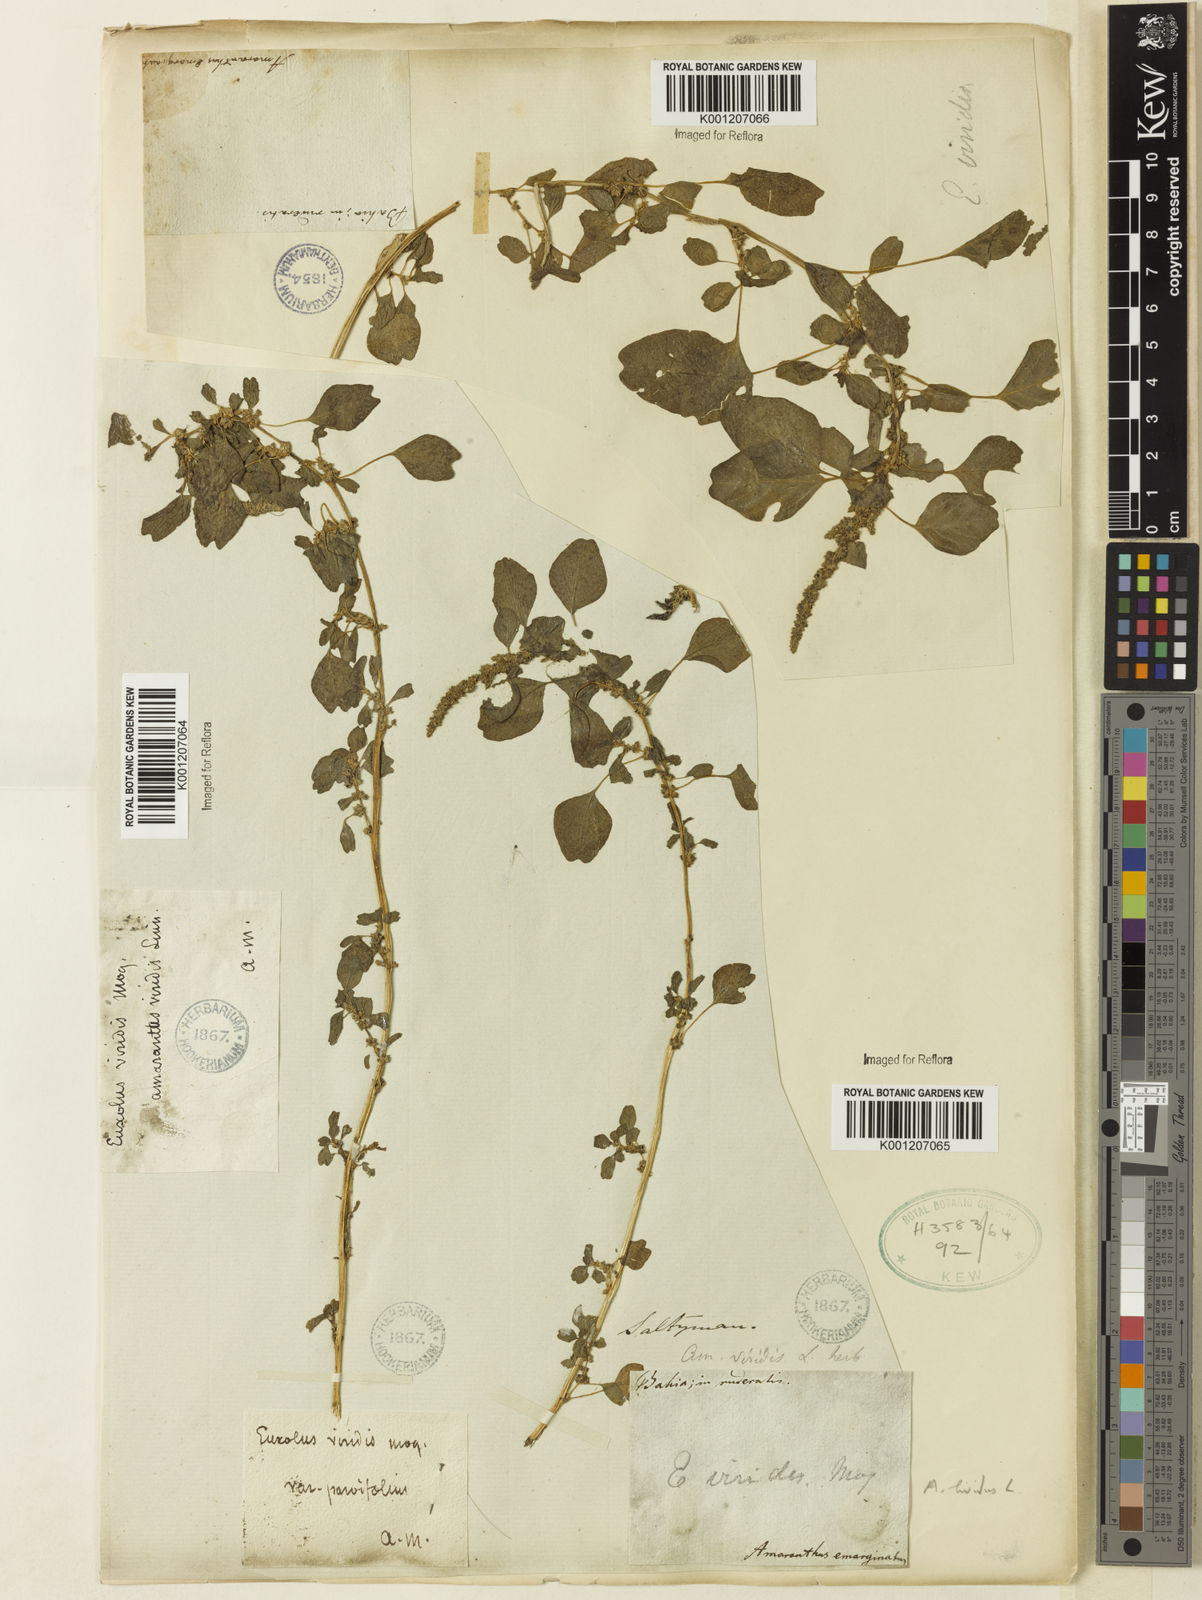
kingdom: Plantae
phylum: Tracheophyta
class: Magnoliopsida
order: Caryophyllales
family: Amaranthaceae
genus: Amaranthus
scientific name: Amaranthus blitum
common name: Purple amaranth
